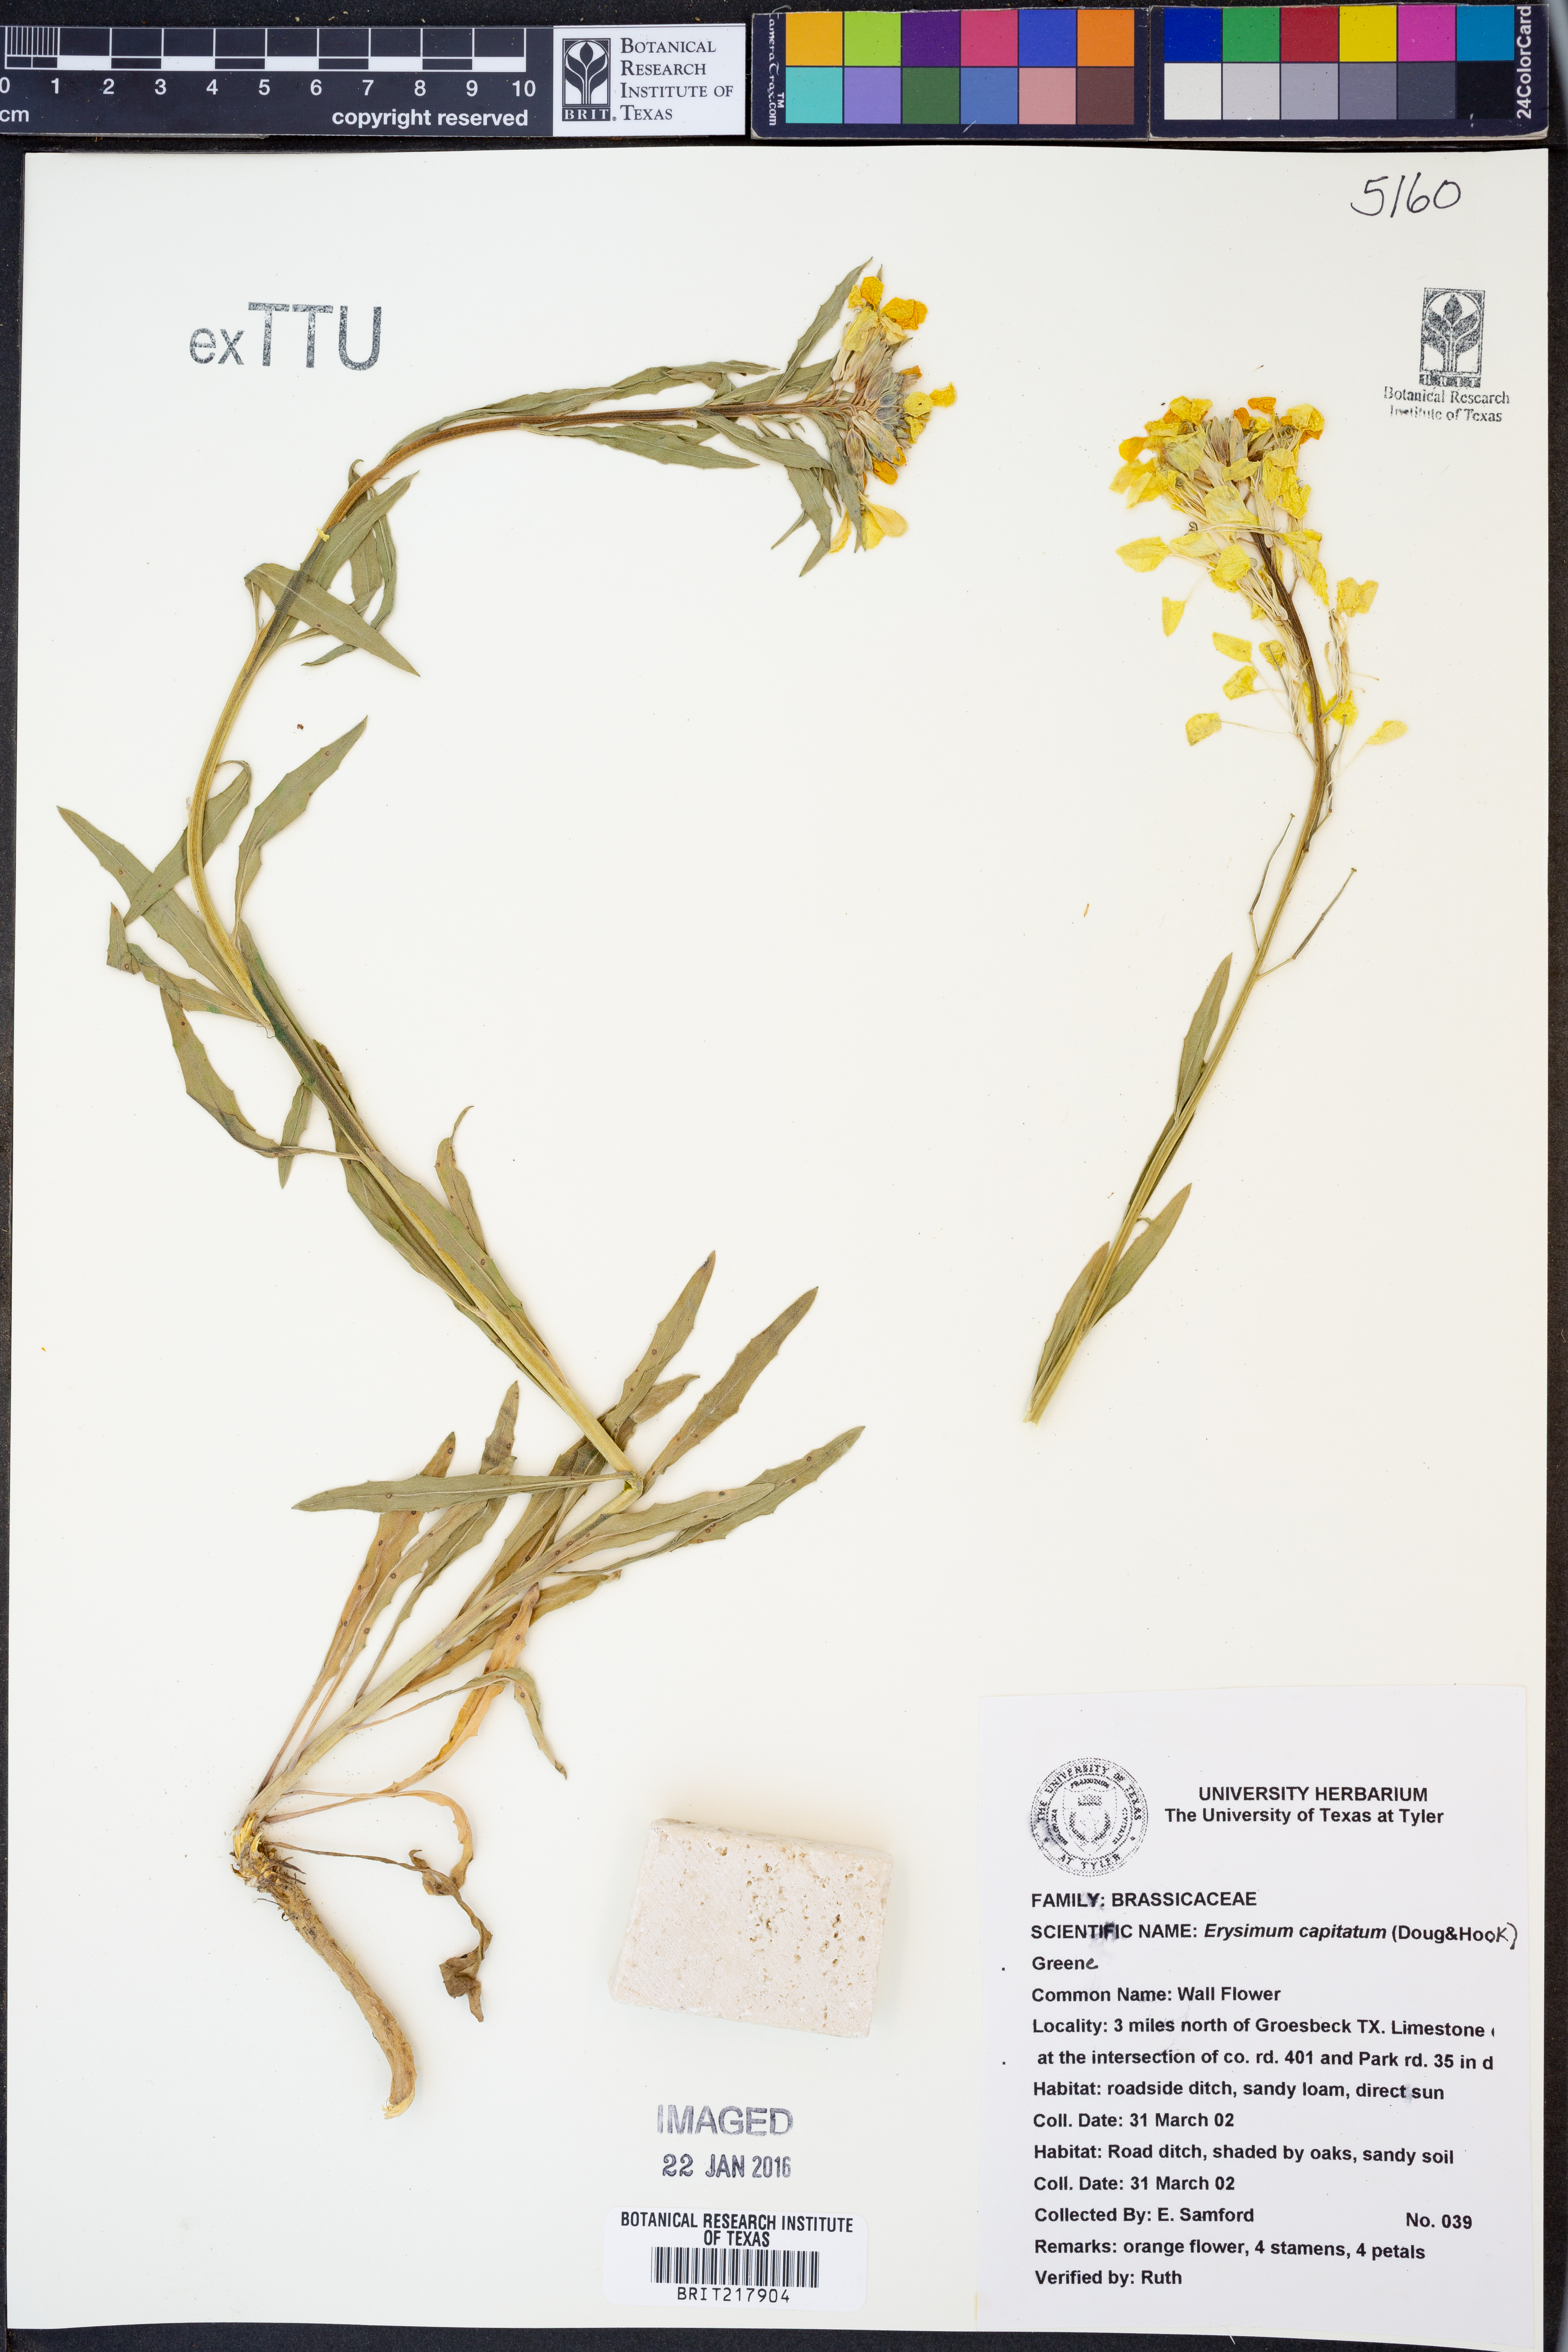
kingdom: Plantae
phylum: Tracheophyta
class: Magnoliopsida
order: Brassicales
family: Brassicaceae
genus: Erysimum
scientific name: Erysimum capitatum
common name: Western wallflower
